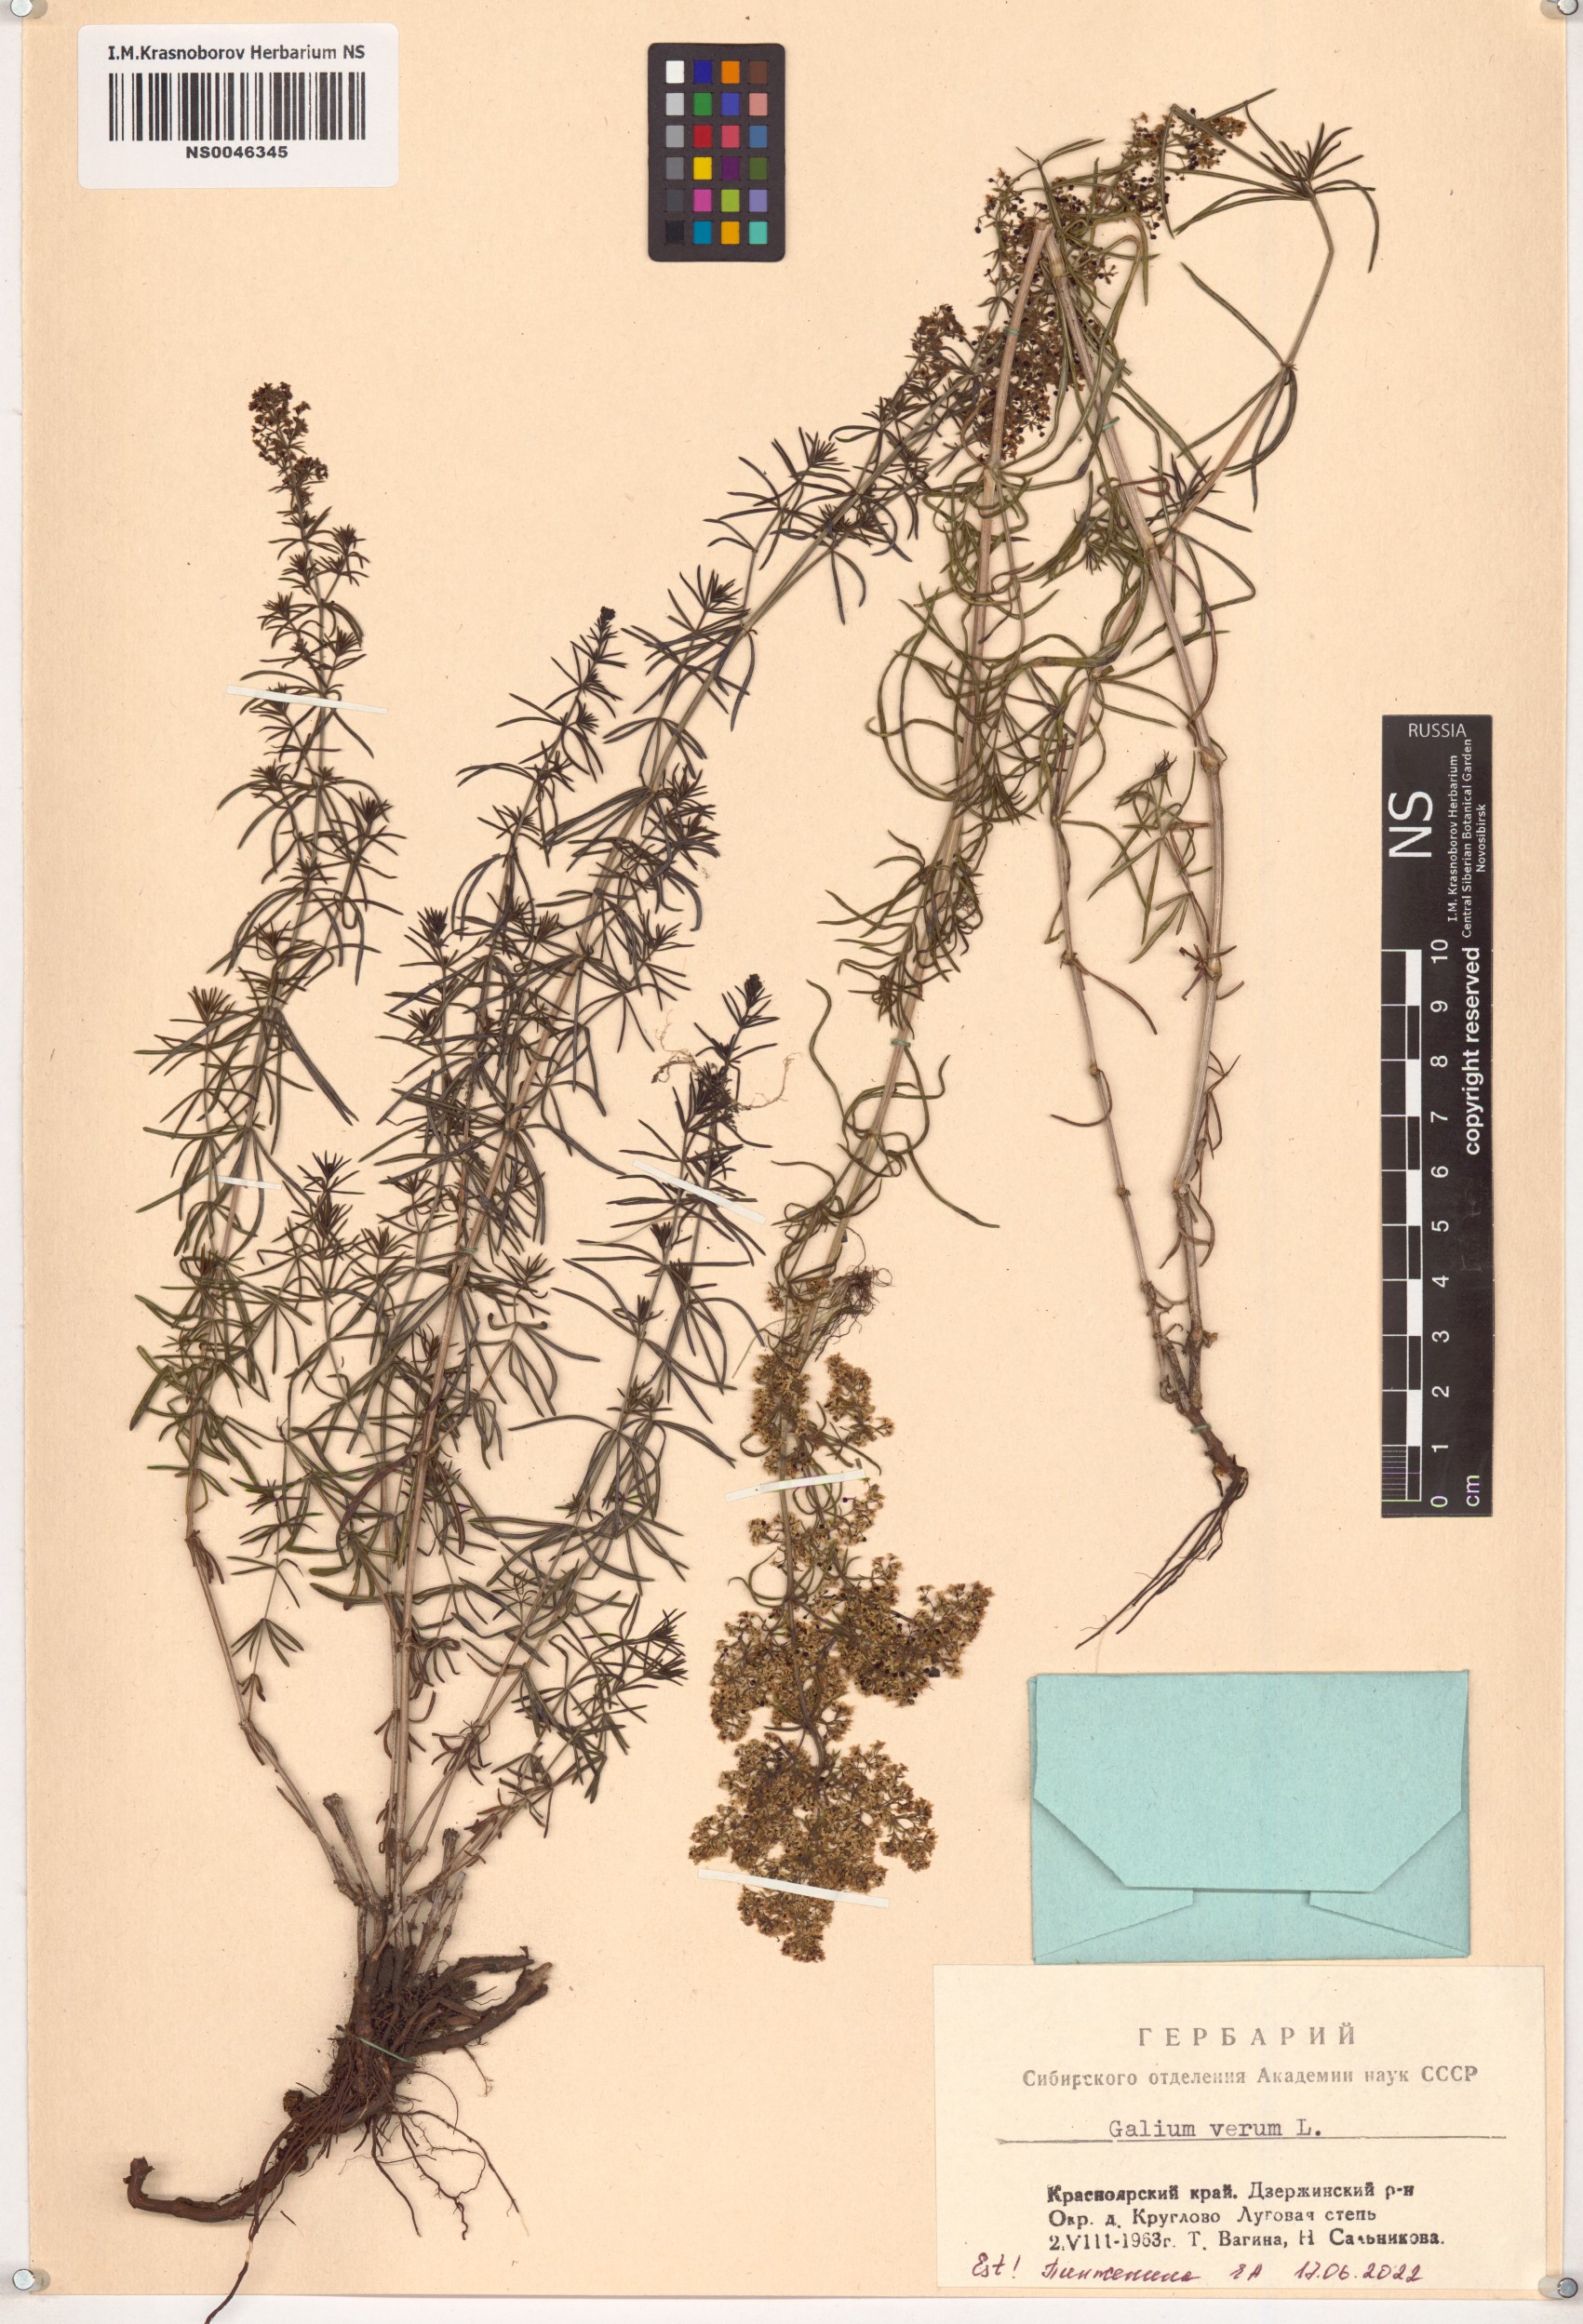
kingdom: Plantae
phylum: Tracheophyta
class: Magnoliopsida
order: Gentianales
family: Rubiaceae
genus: Galium
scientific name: Galium verum
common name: Lady's bedstraw
